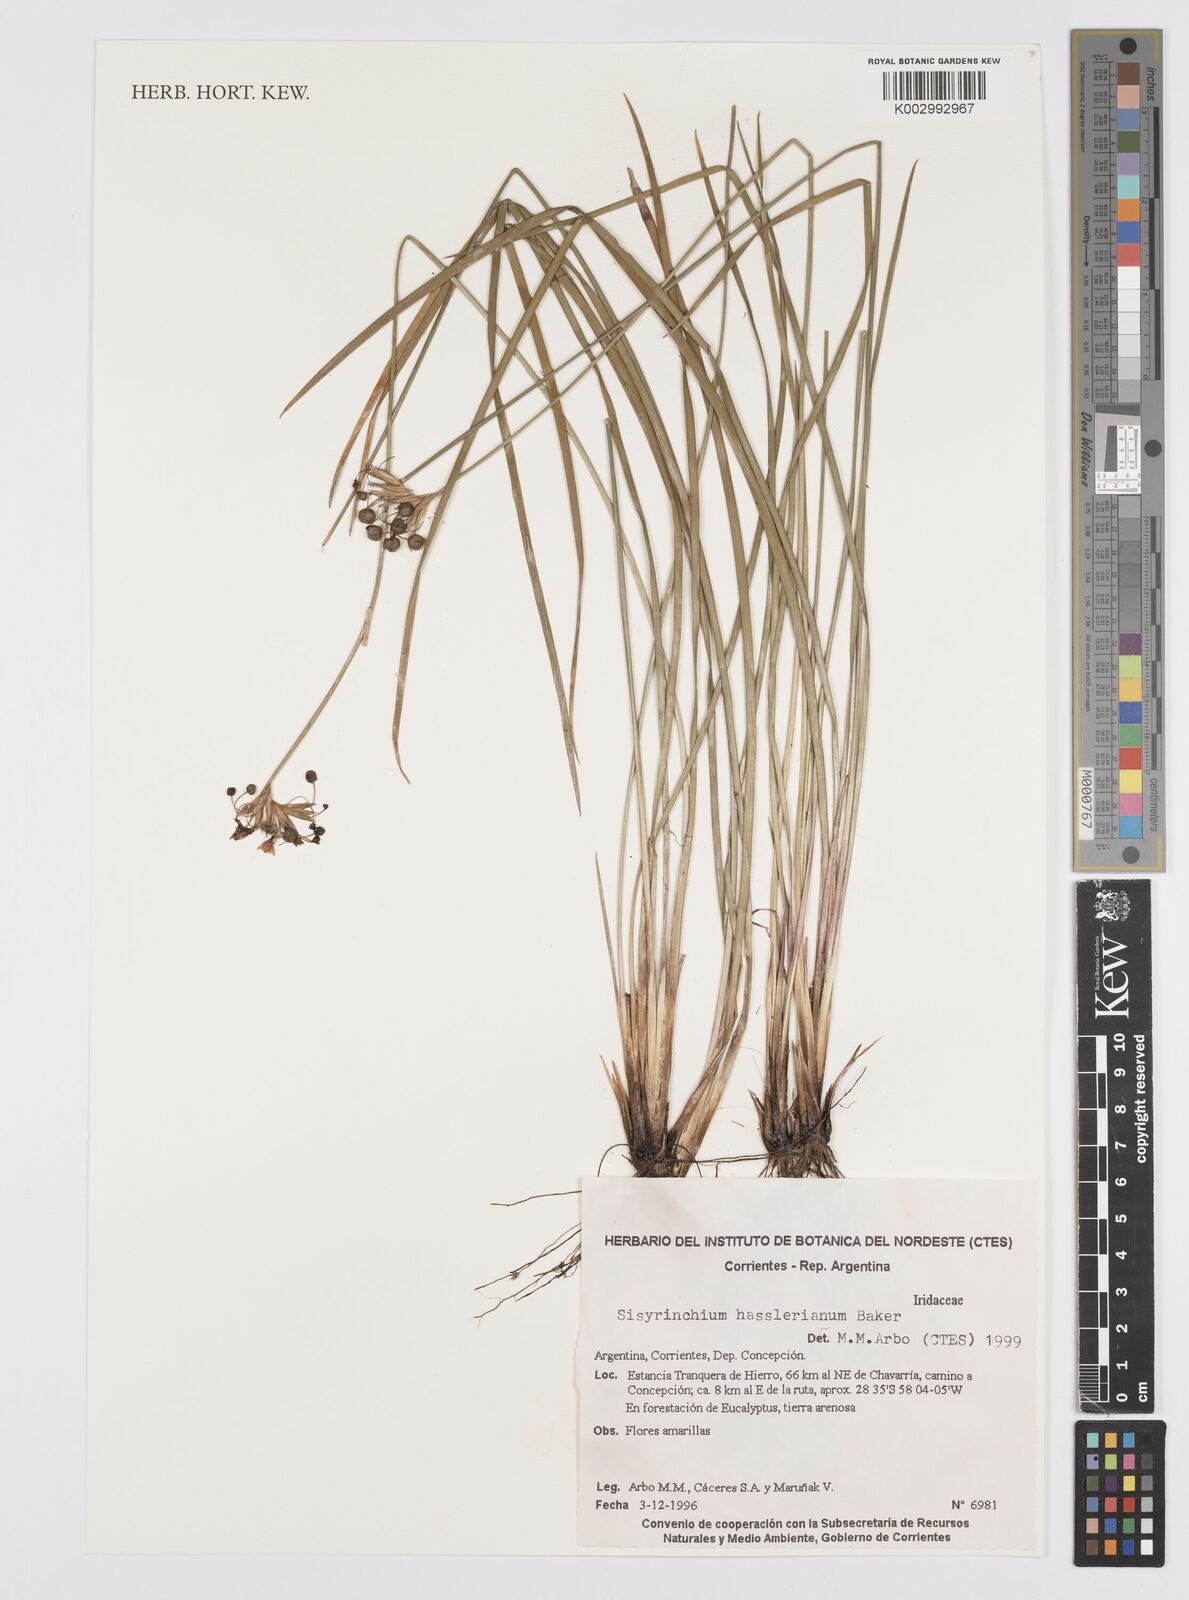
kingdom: Plantae
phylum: Tracheophyta
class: Liliopsida
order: Asparagales
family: Iridaceae
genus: Sisyrinchium
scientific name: Sisyrinchium hasslerianum
